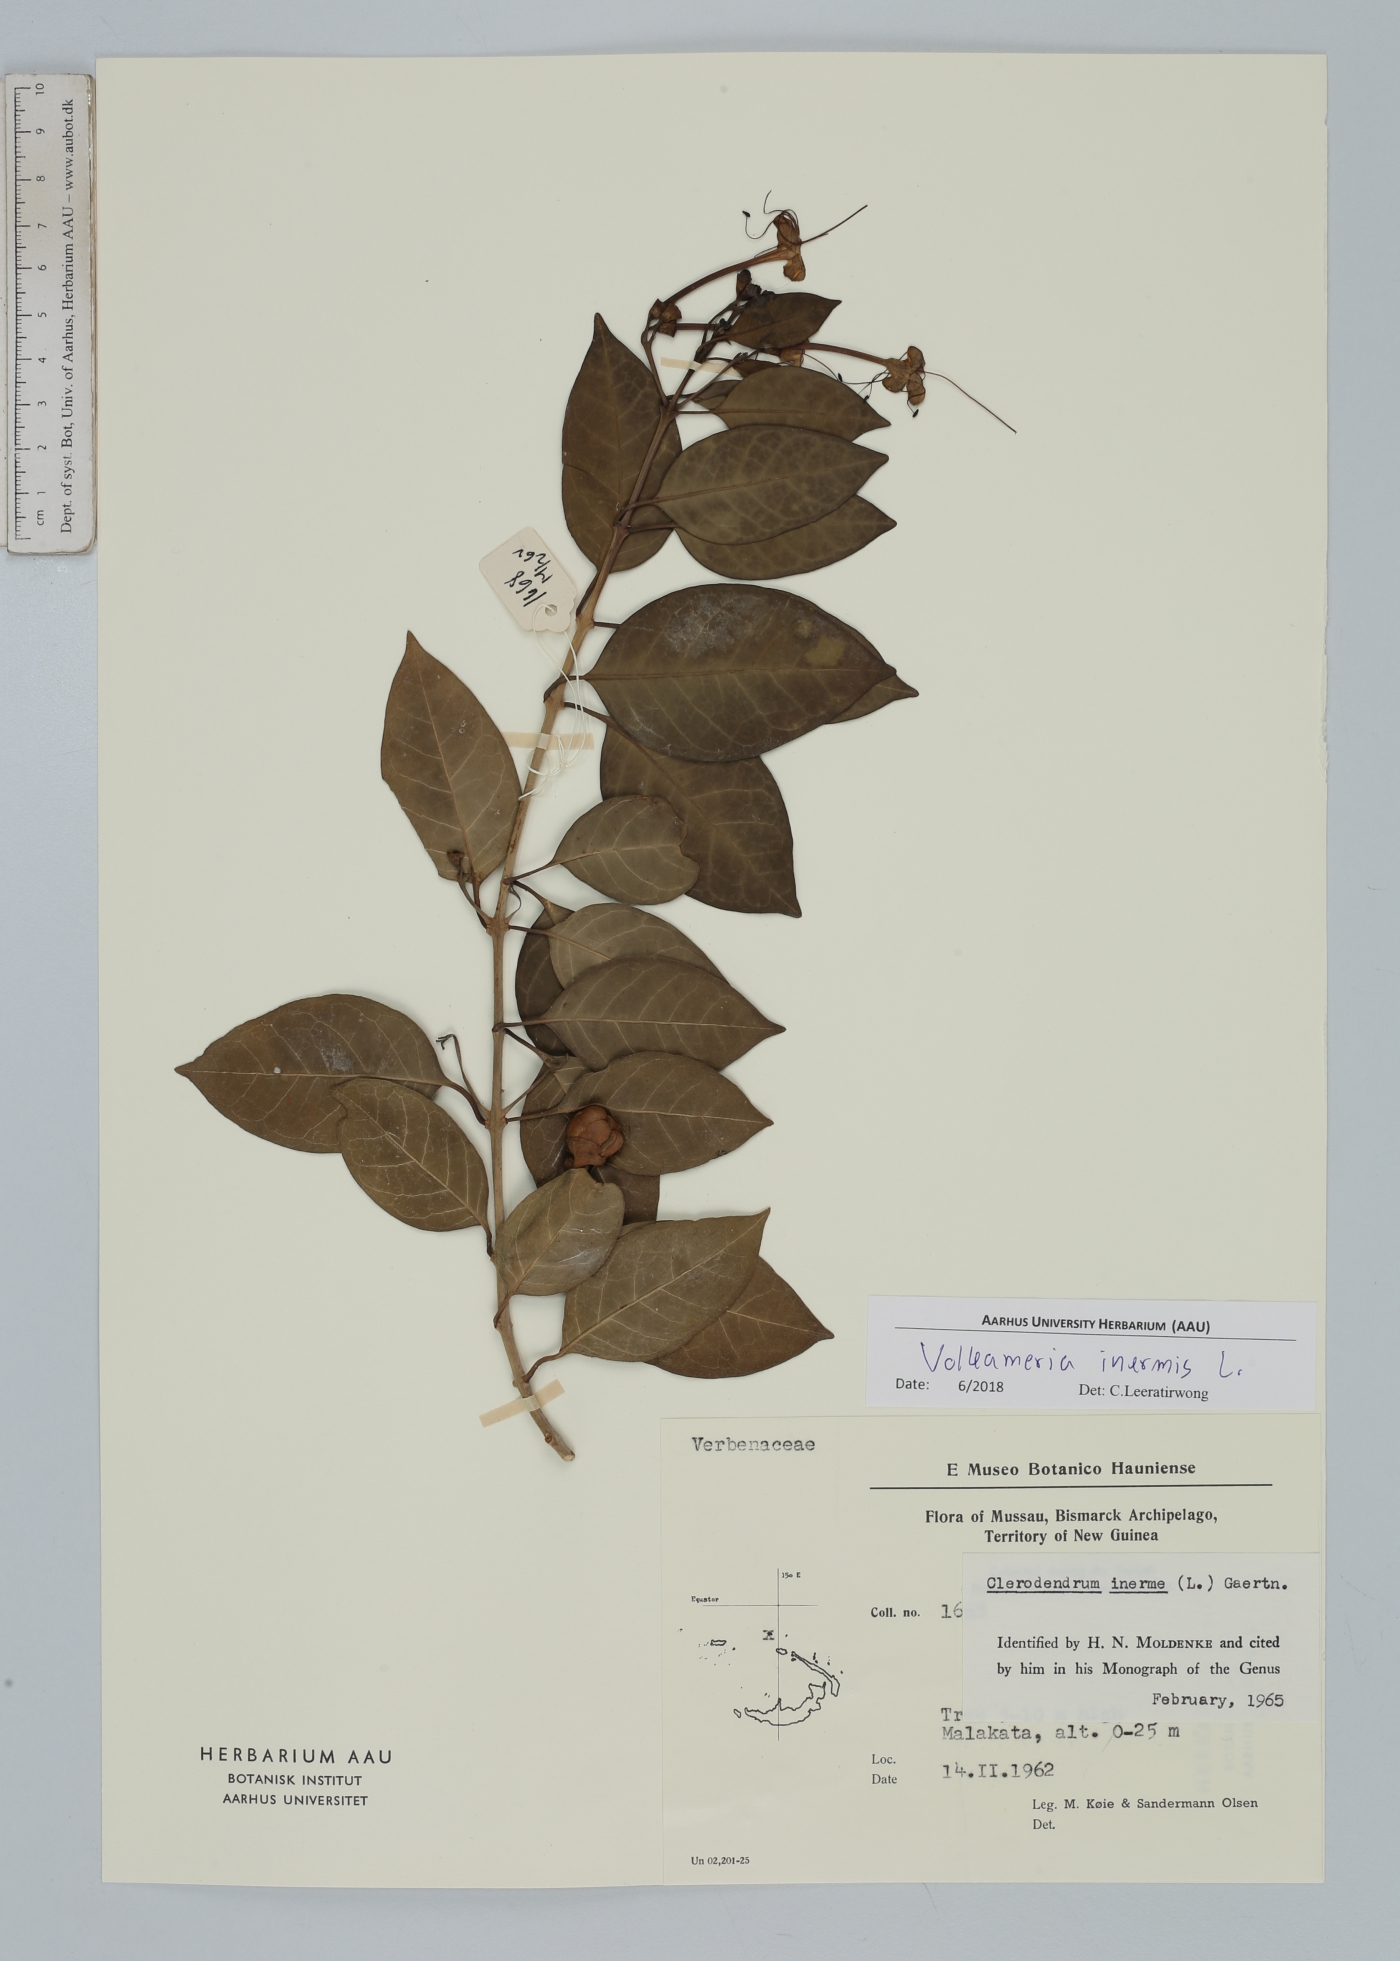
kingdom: Plantae
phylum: Tracheophyta
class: Magnoliopsida
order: Lamiales
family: Lamiaceae
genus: Volkameria
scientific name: Volkameria inermis
